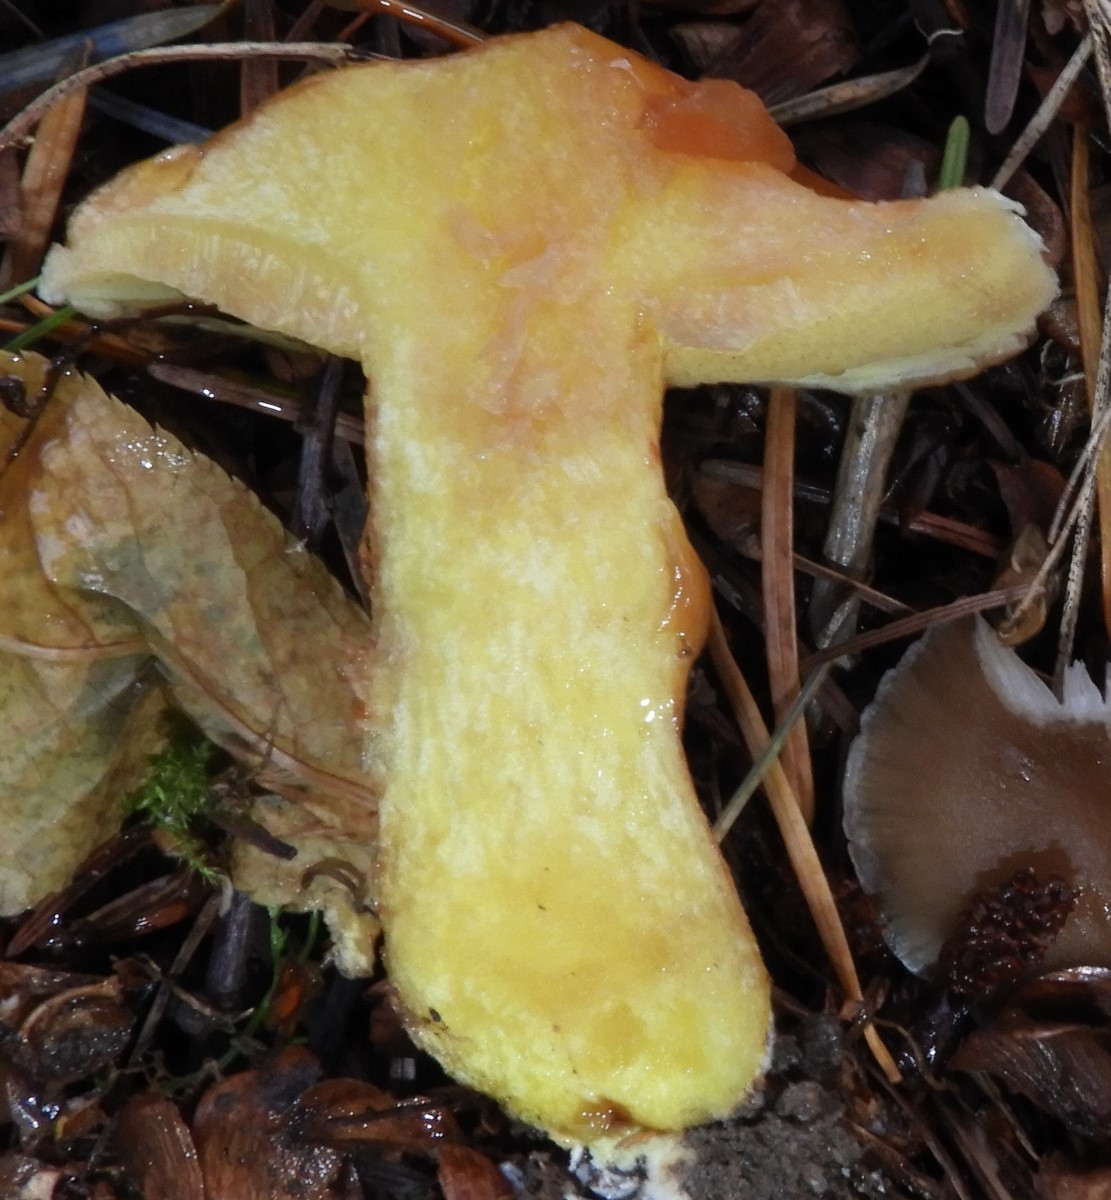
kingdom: Fungi
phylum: Basidiomycota
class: Agaricomycetes
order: Boletales
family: Suillaceae
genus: Suillus
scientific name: Suillus grevillei
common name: lærke-slimrørhat
